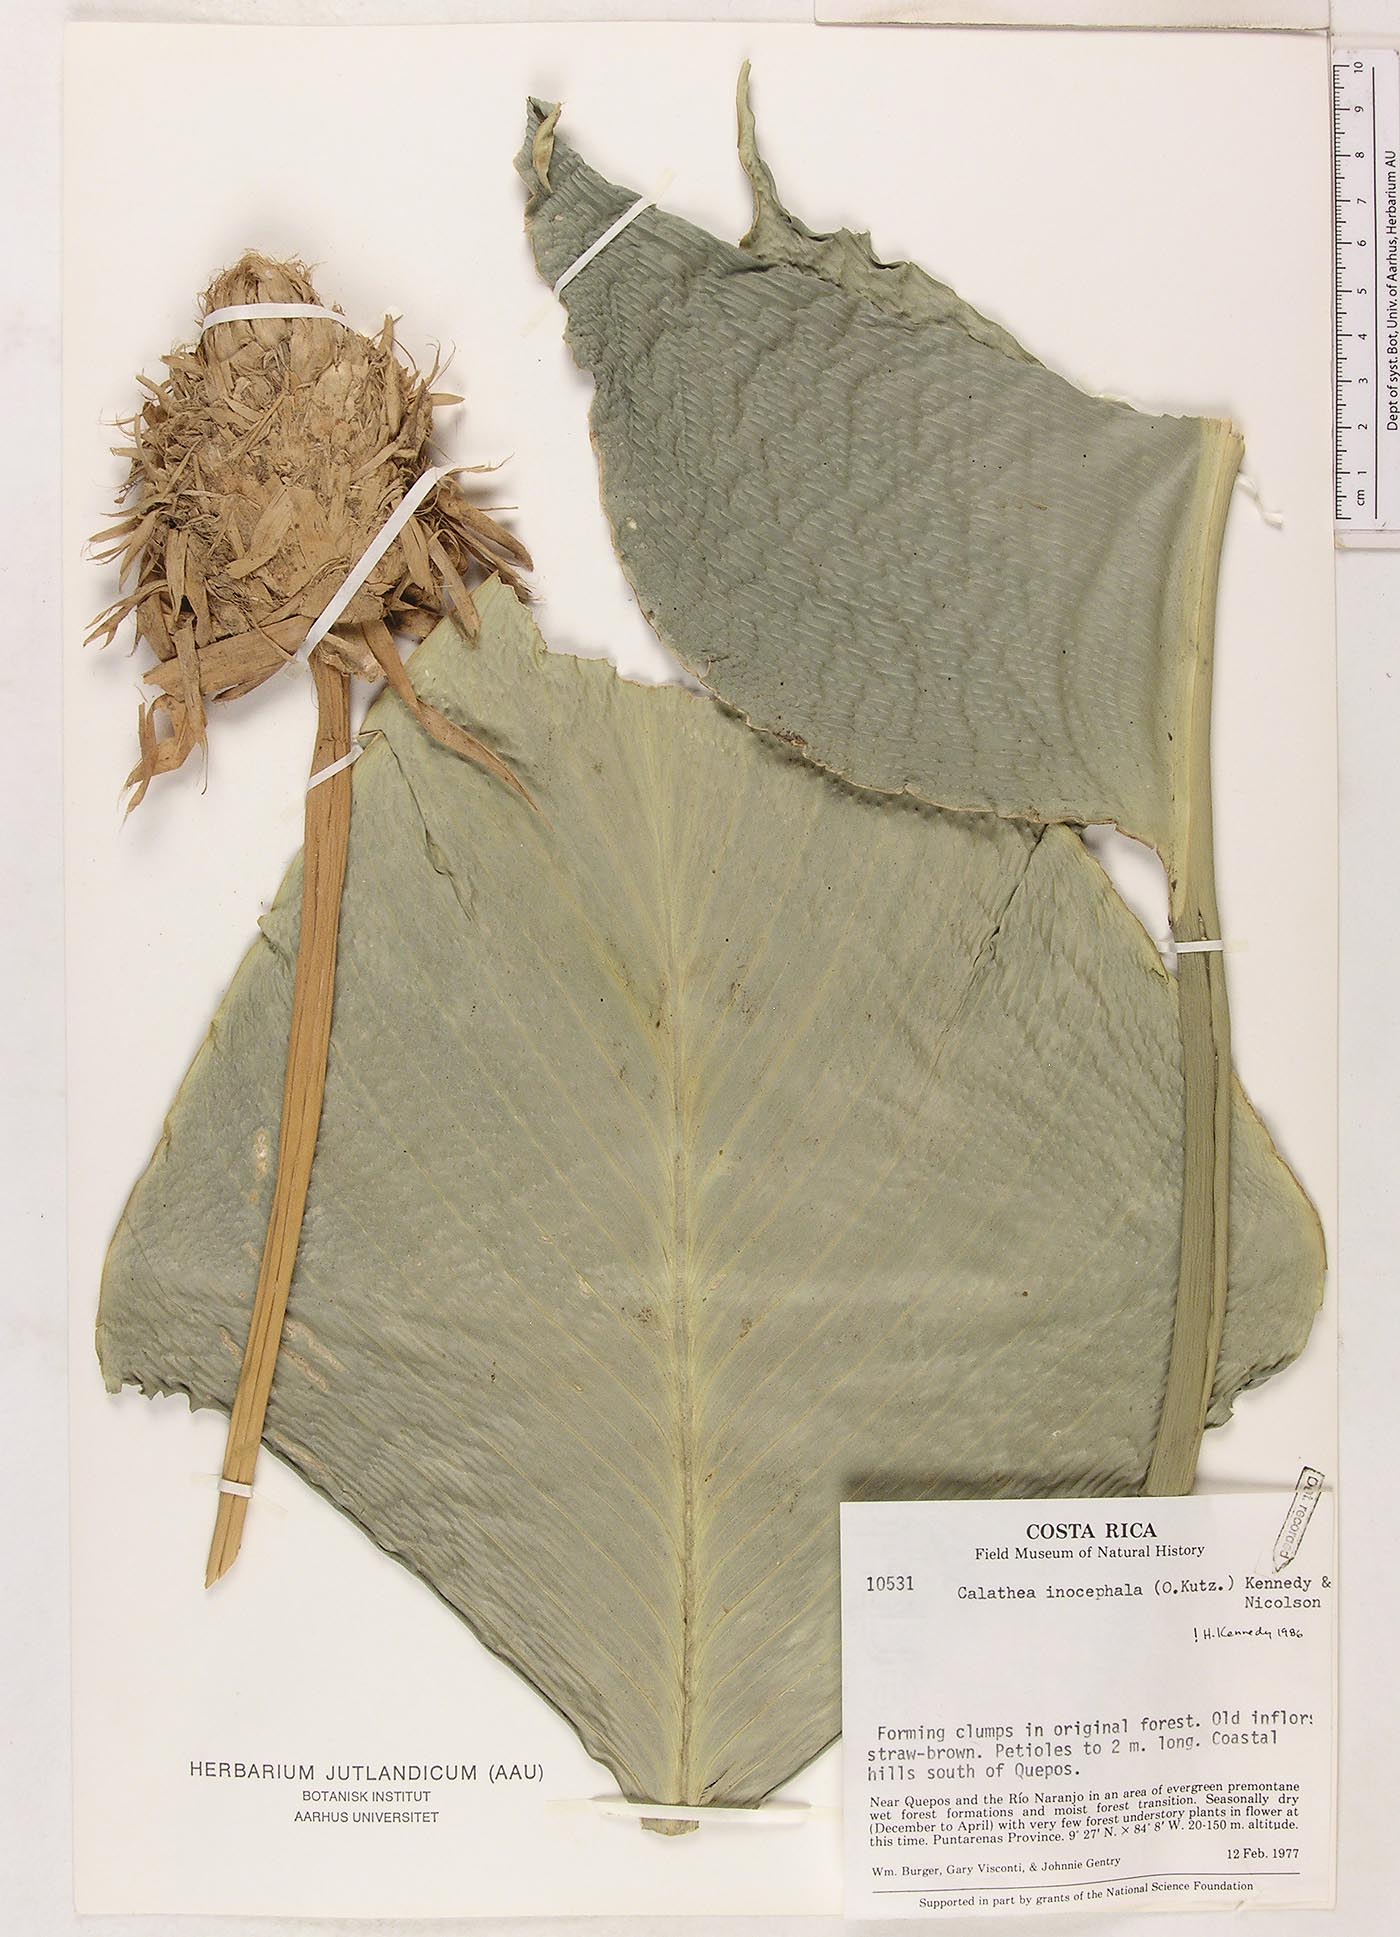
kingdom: Plantae
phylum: Tracheophyta
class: Liliopsida
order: Zingiberales
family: Marantaceae
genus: Goeppertia
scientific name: Goeppertia inocephala
